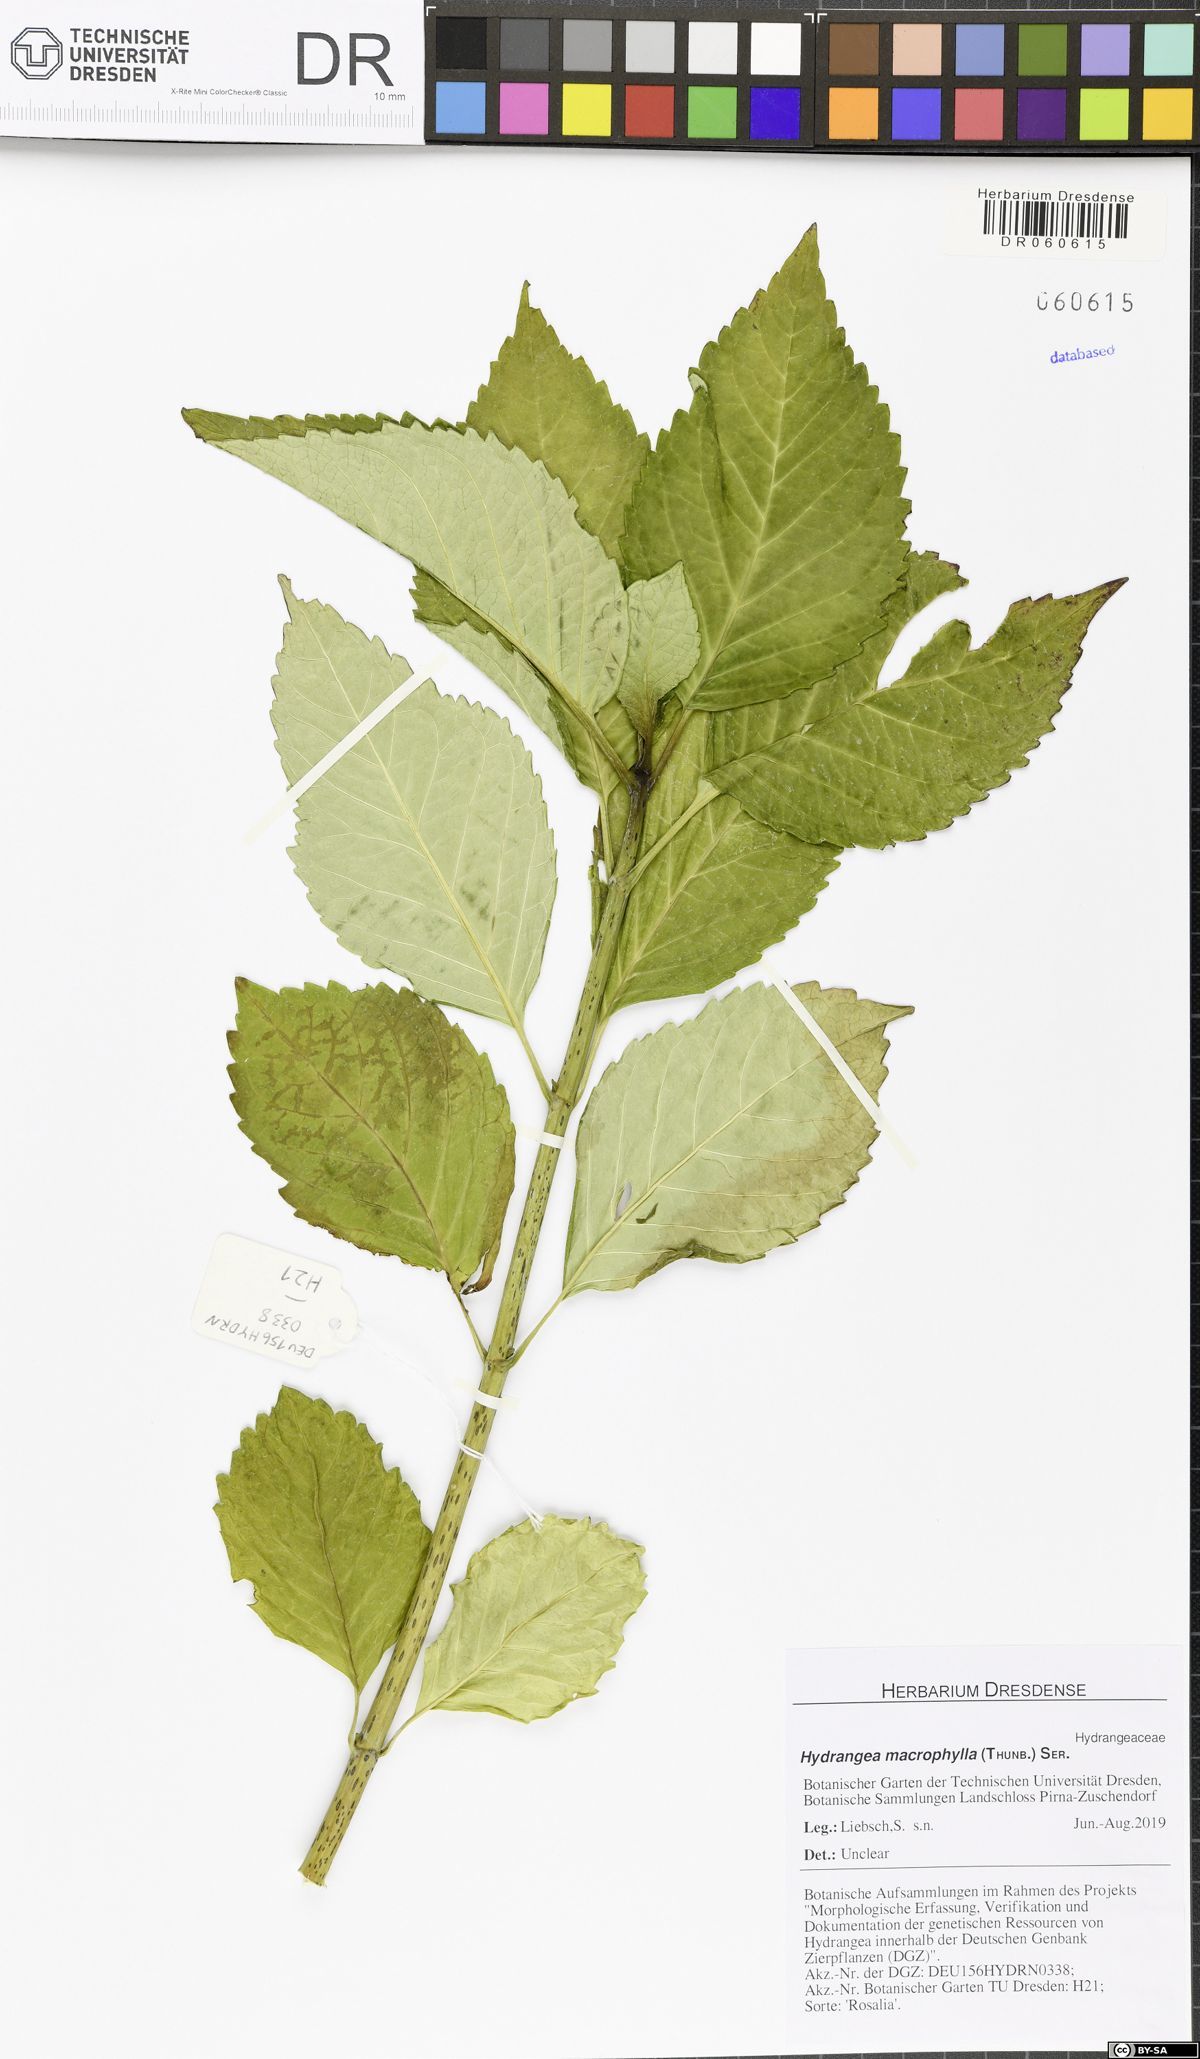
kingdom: Plantae
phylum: Tracheophyta
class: Magnoliopsida
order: Cornales
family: Hydrangeaceae
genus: Hydrangea
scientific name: Hydrangea macrophylla
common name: Hydrangea
